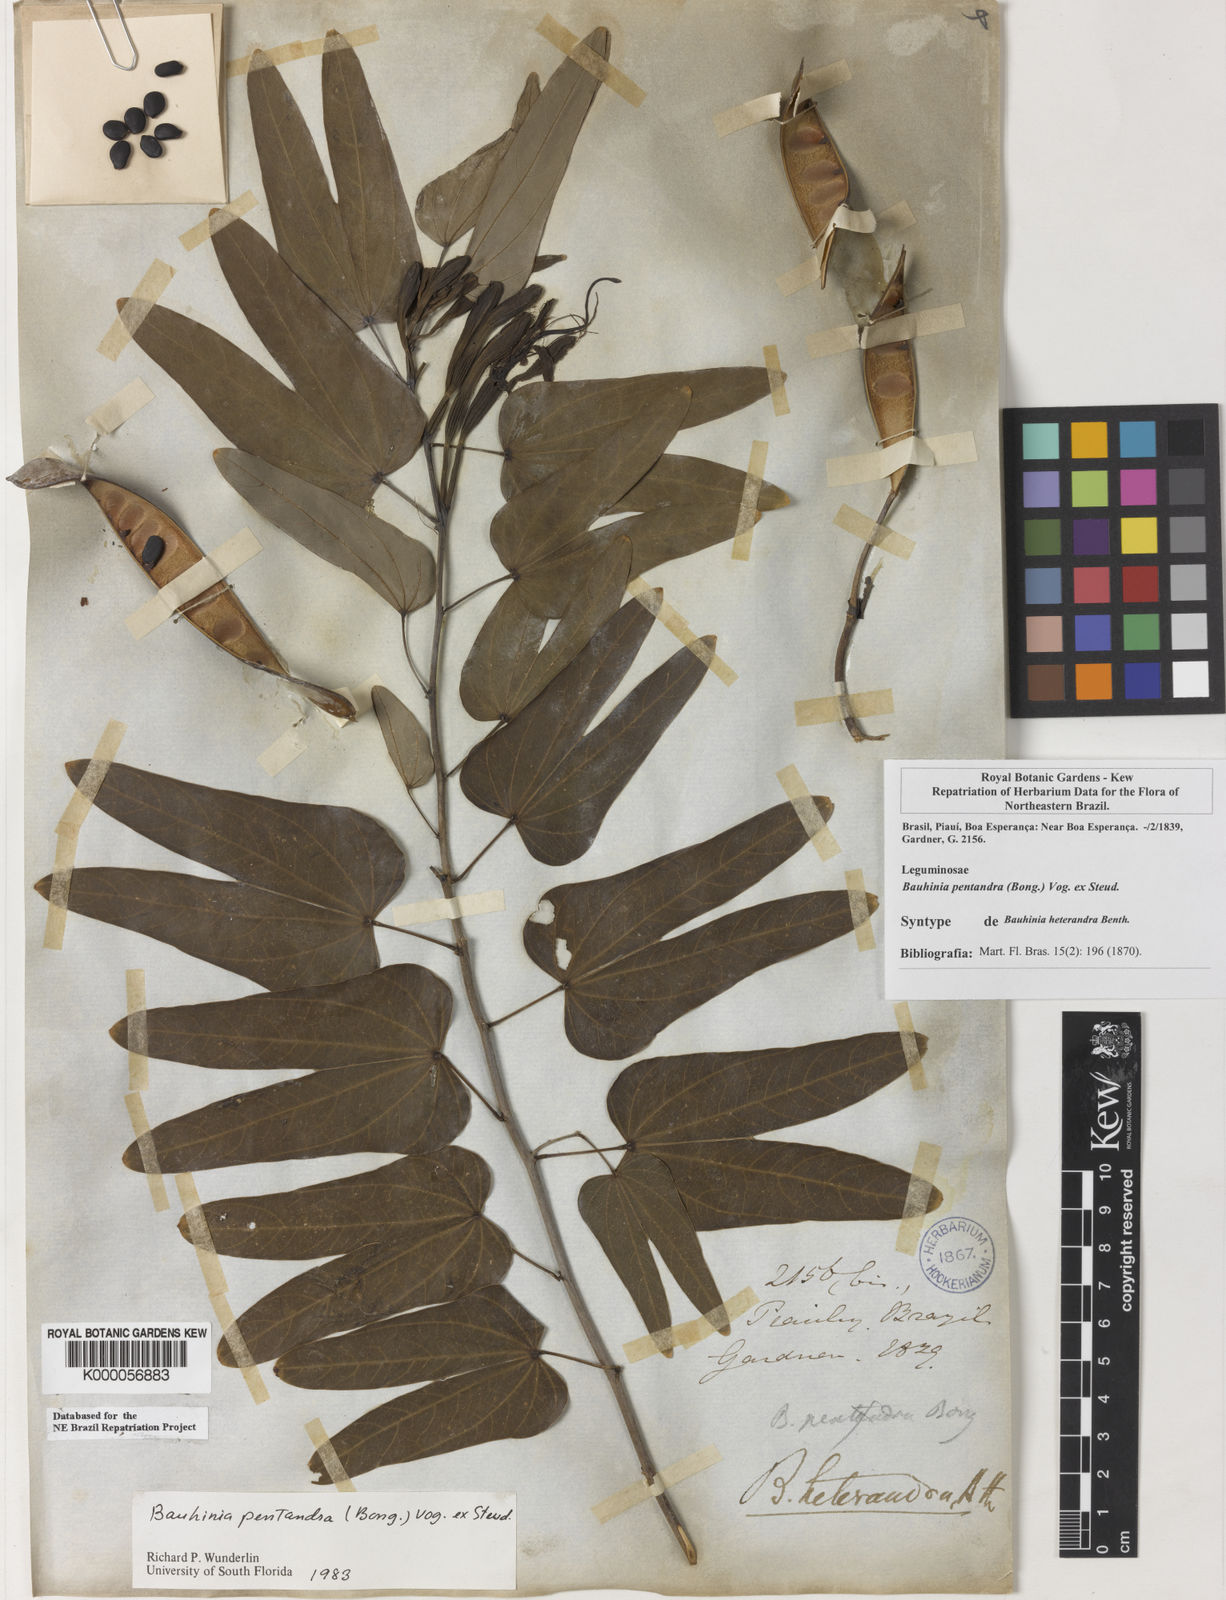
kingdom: Plantae
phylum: Tracheophyta
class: Magnoliopsida
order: Fabales
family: Fabaceae
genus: Bauhinia
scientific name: Bauhinia
